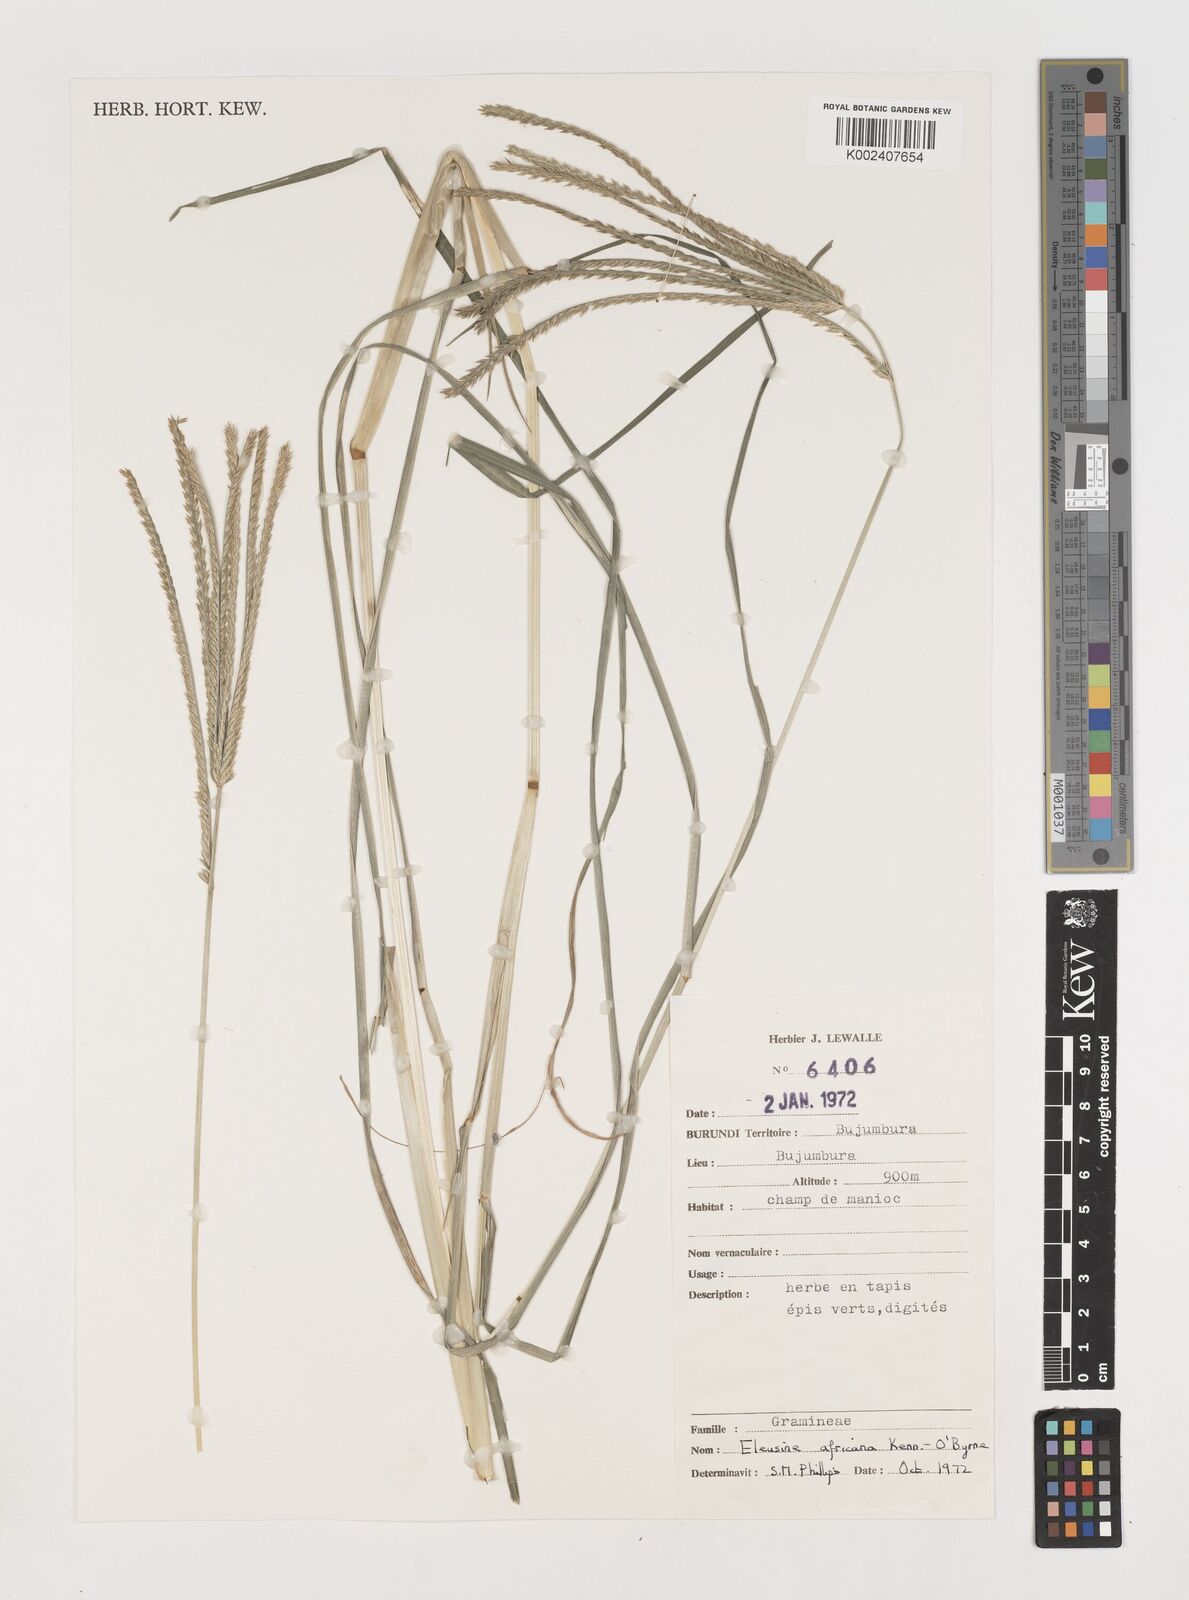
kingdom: Plantae
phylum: Tracheophyta
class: Liliopsida
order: Poales
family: Poaceae
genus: Eleusine
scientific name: Eleusine africana
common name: Wild african finger millet
